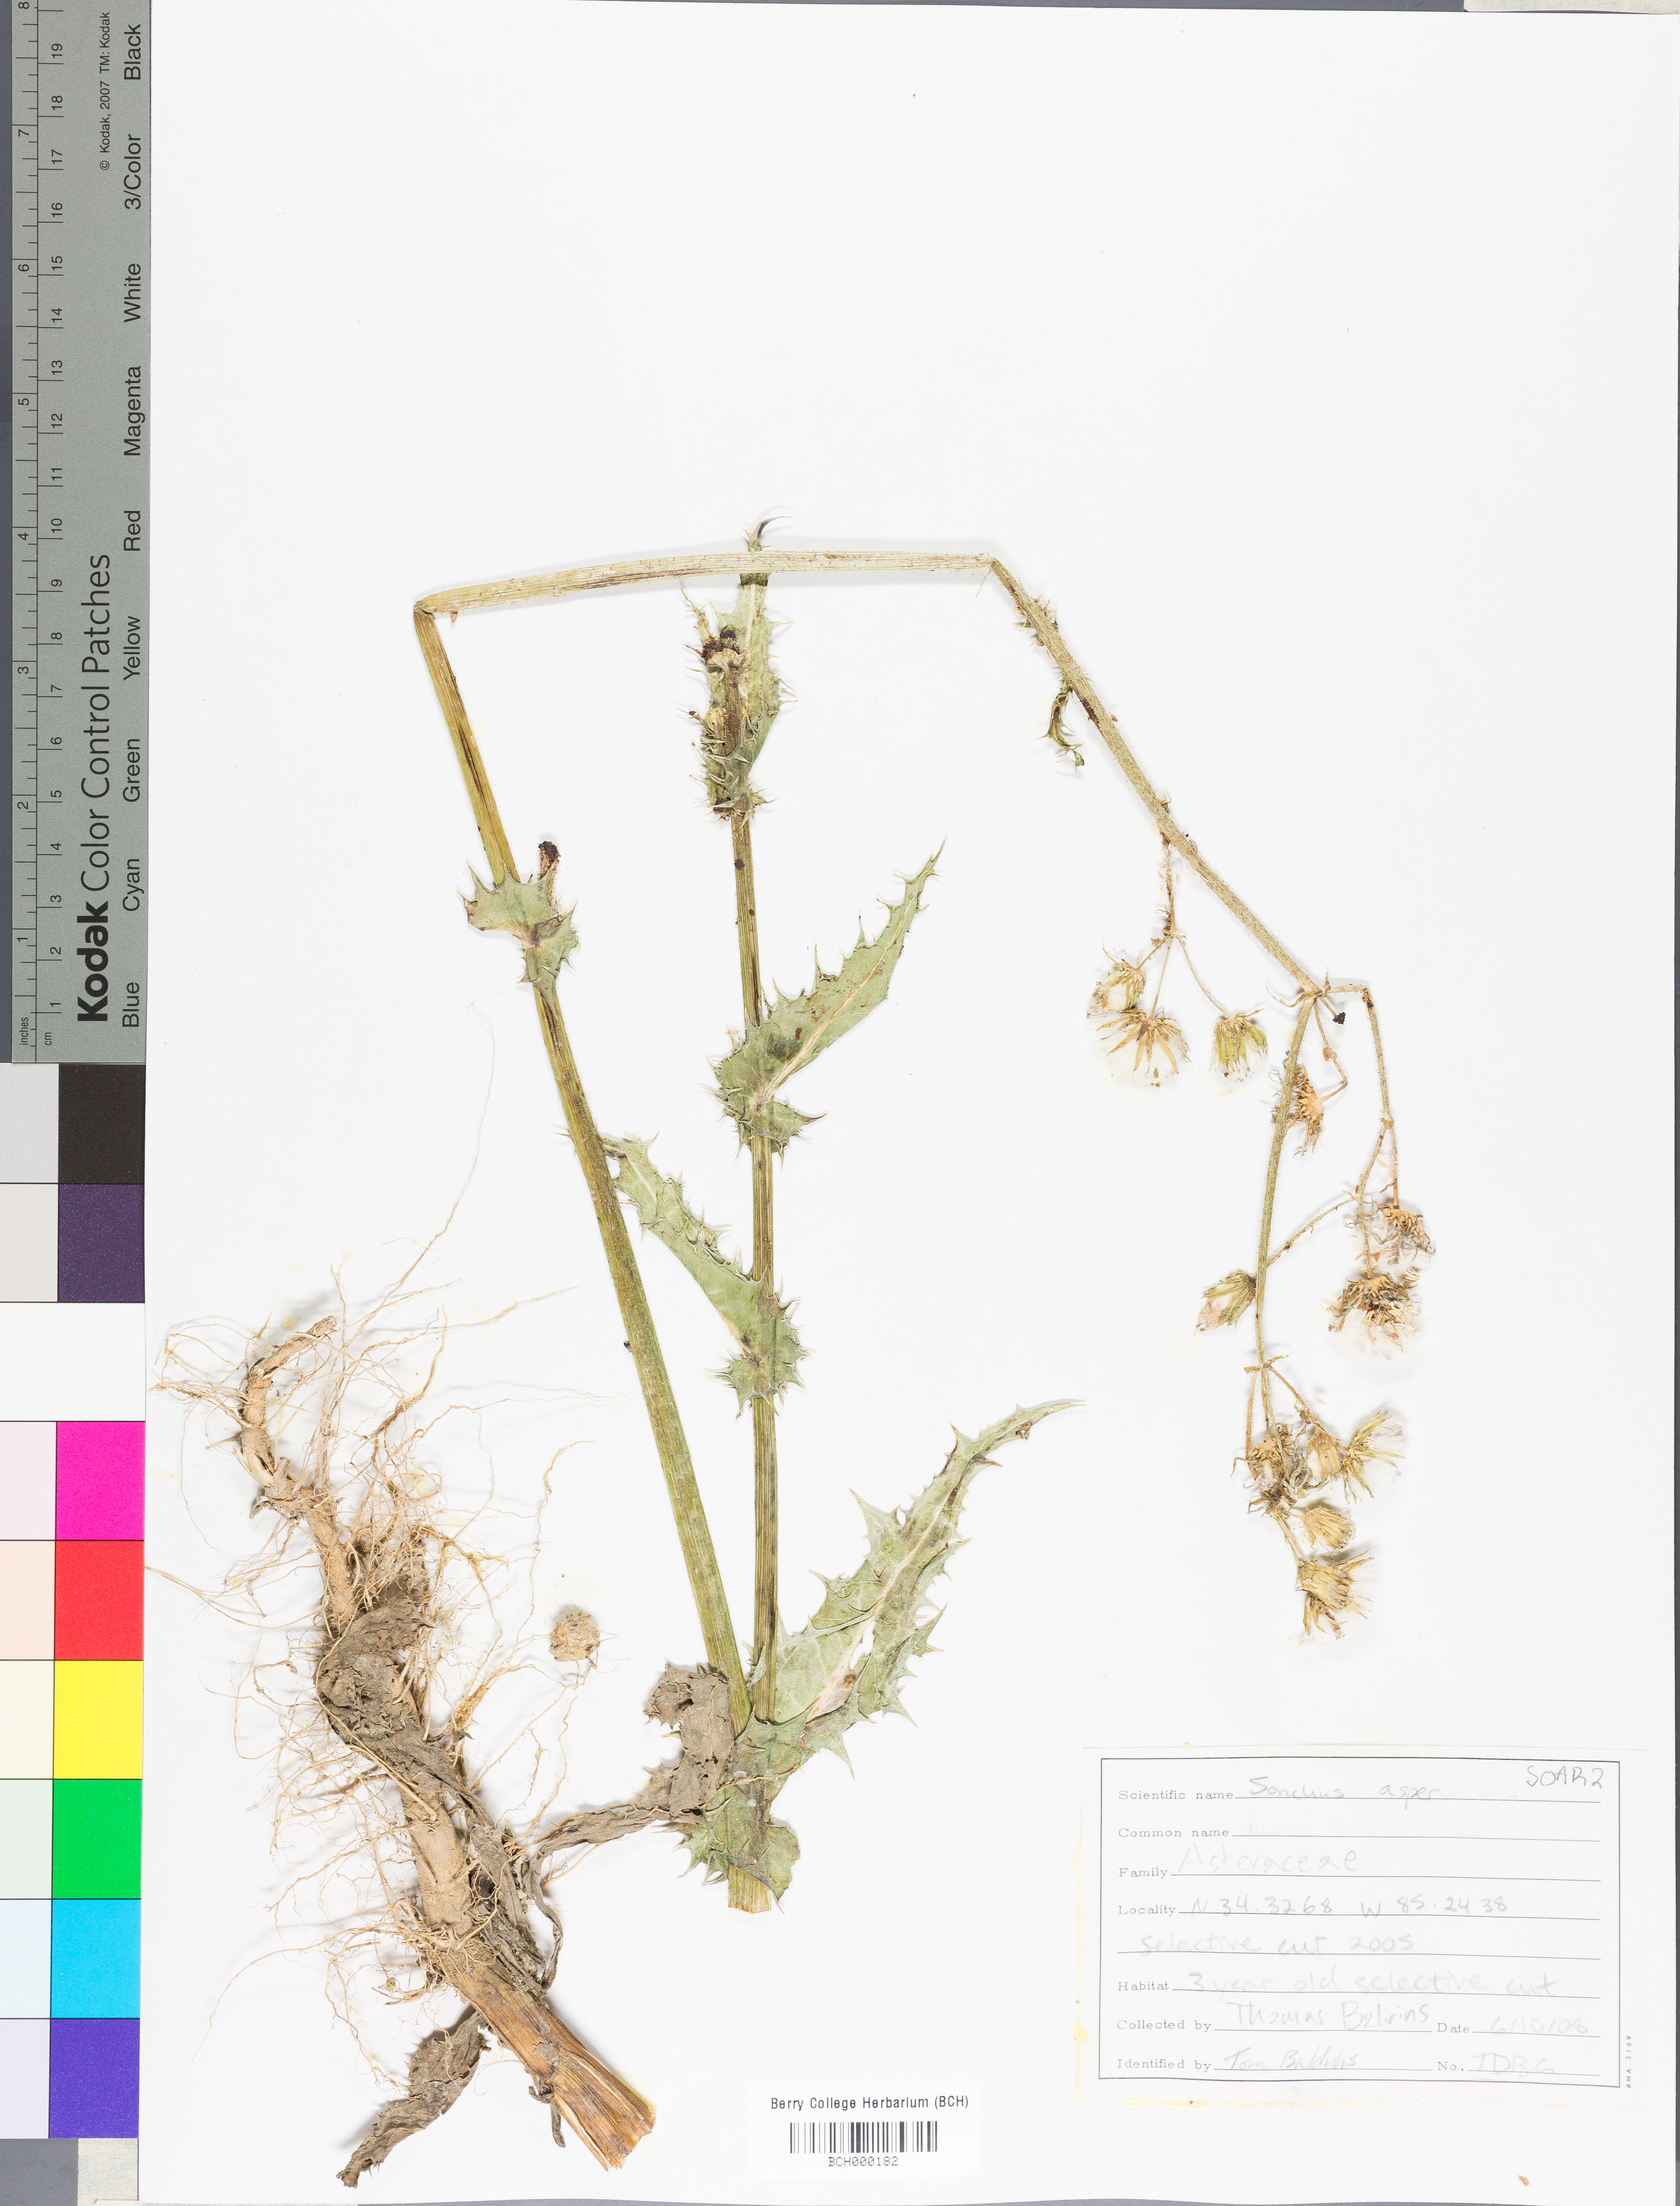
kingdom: Plantae
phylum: Tracheophyta
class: Magnoliopsida
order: Asterales
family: Asteraceae
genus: Sonchus
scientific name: Sonchus arvensis
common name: Perennial sow-thistle
